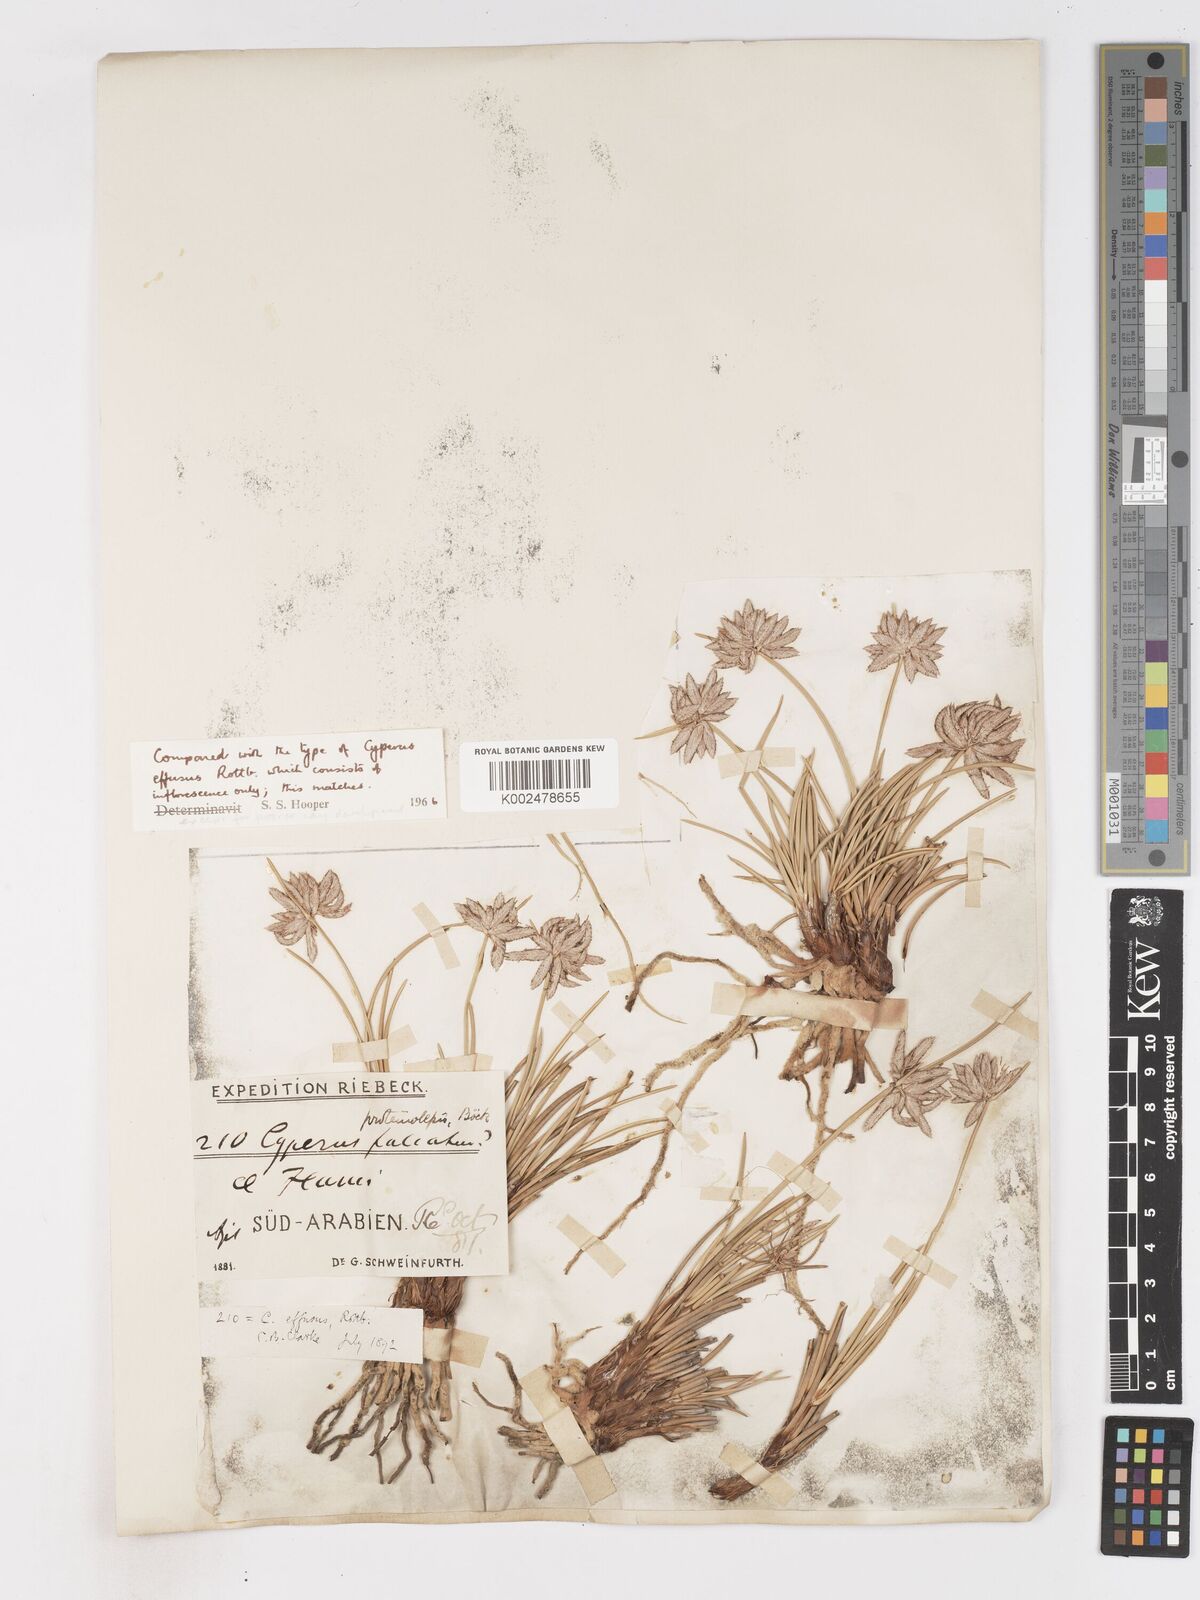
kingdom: Plantae
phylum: Tracheophyta
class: Liliopsida
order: Poales
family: Cyperaceae
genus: Cyperus
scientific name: Cyperus conglomeratus
